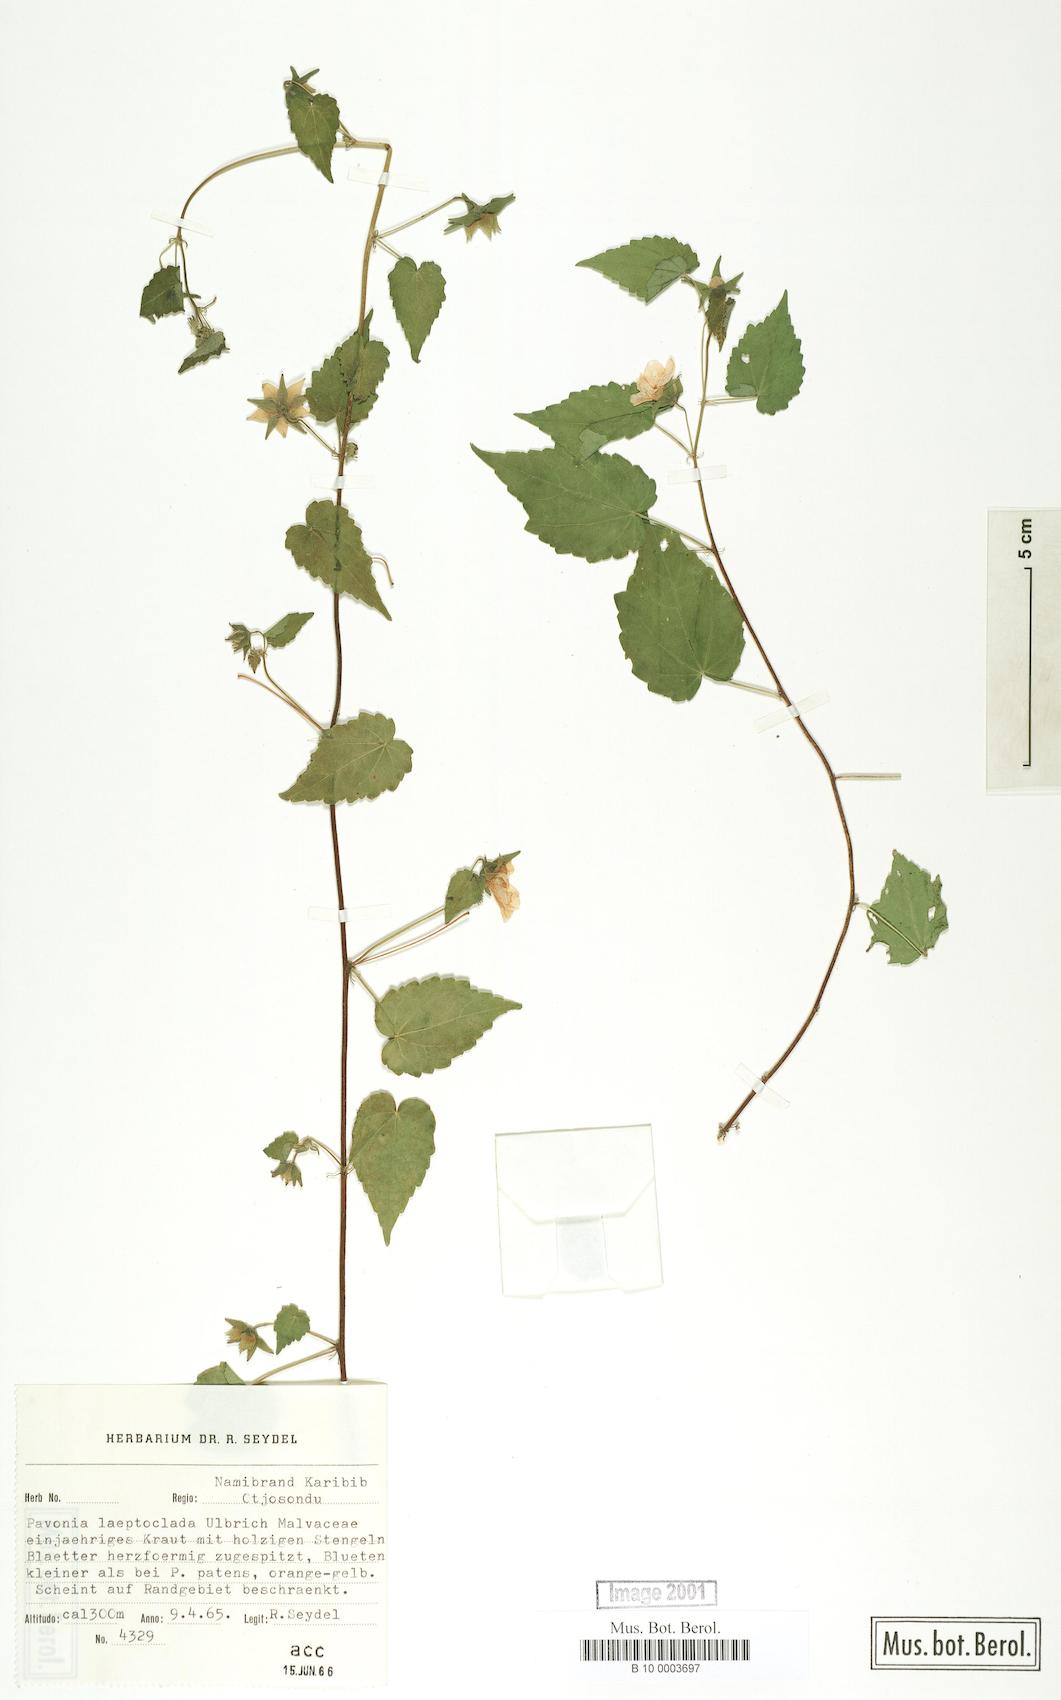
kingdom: Plantae
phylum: Tracheophyta
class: Magnoliopsida
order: Malvales
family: Malvaceae
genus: Pavonia
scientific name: Pavonia burchellii
